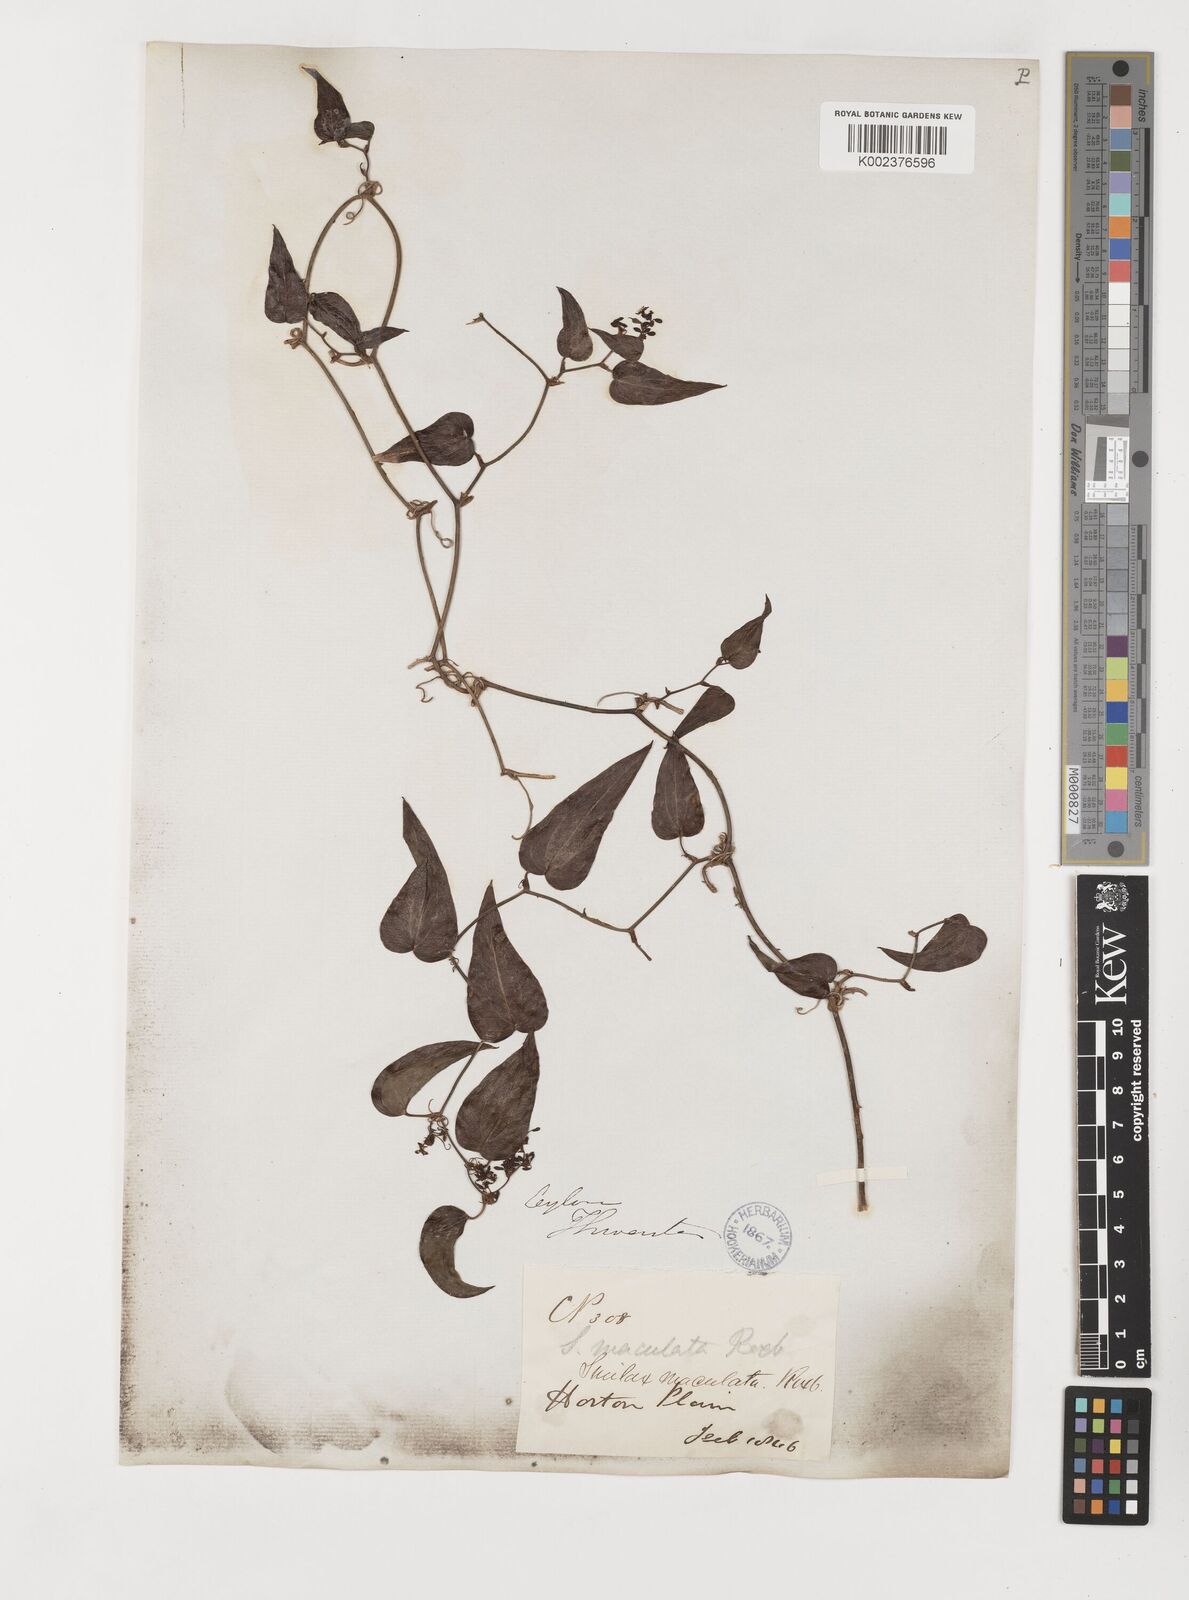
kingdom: Plantae
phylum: Tracheophyta
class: Liliopsida
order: Liliales
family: Smilacaceae
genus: Smilax
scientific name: Smilax aspera
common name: Common smilax
